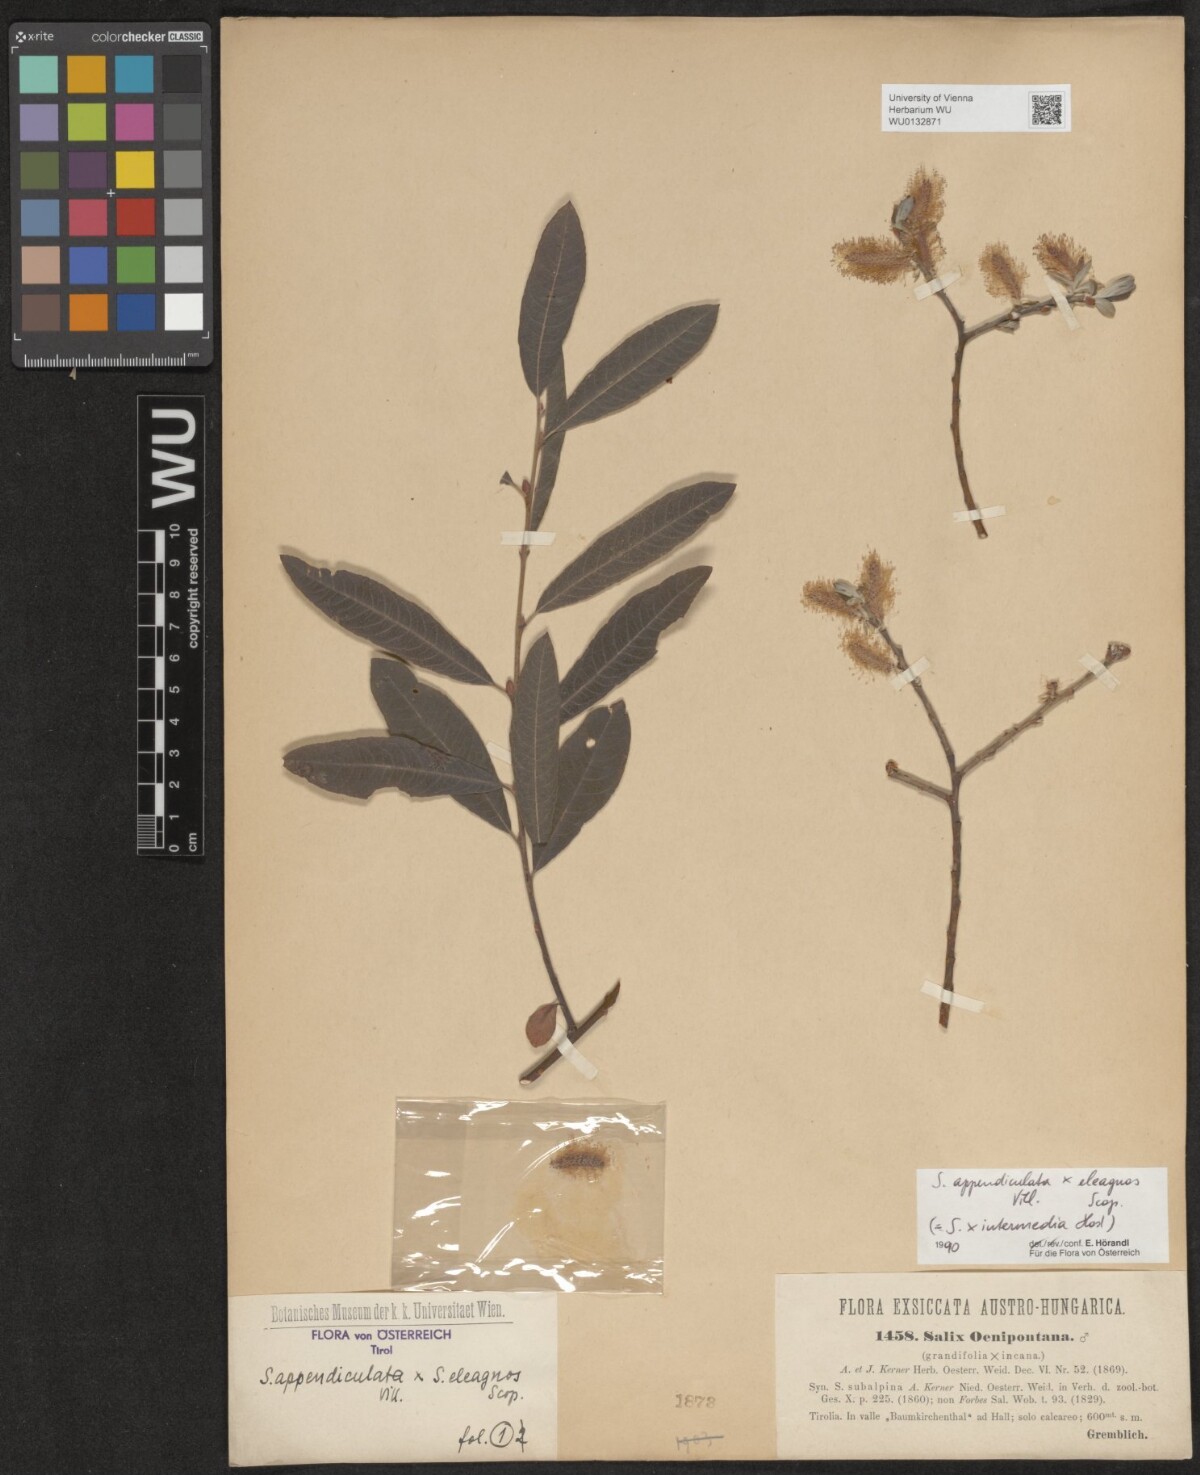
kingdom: Plantae
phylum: Tracheophyta
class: Magnoliopsida
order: Malpighiales
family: Salicaceae
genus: Salix
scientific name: Salix intermedia
